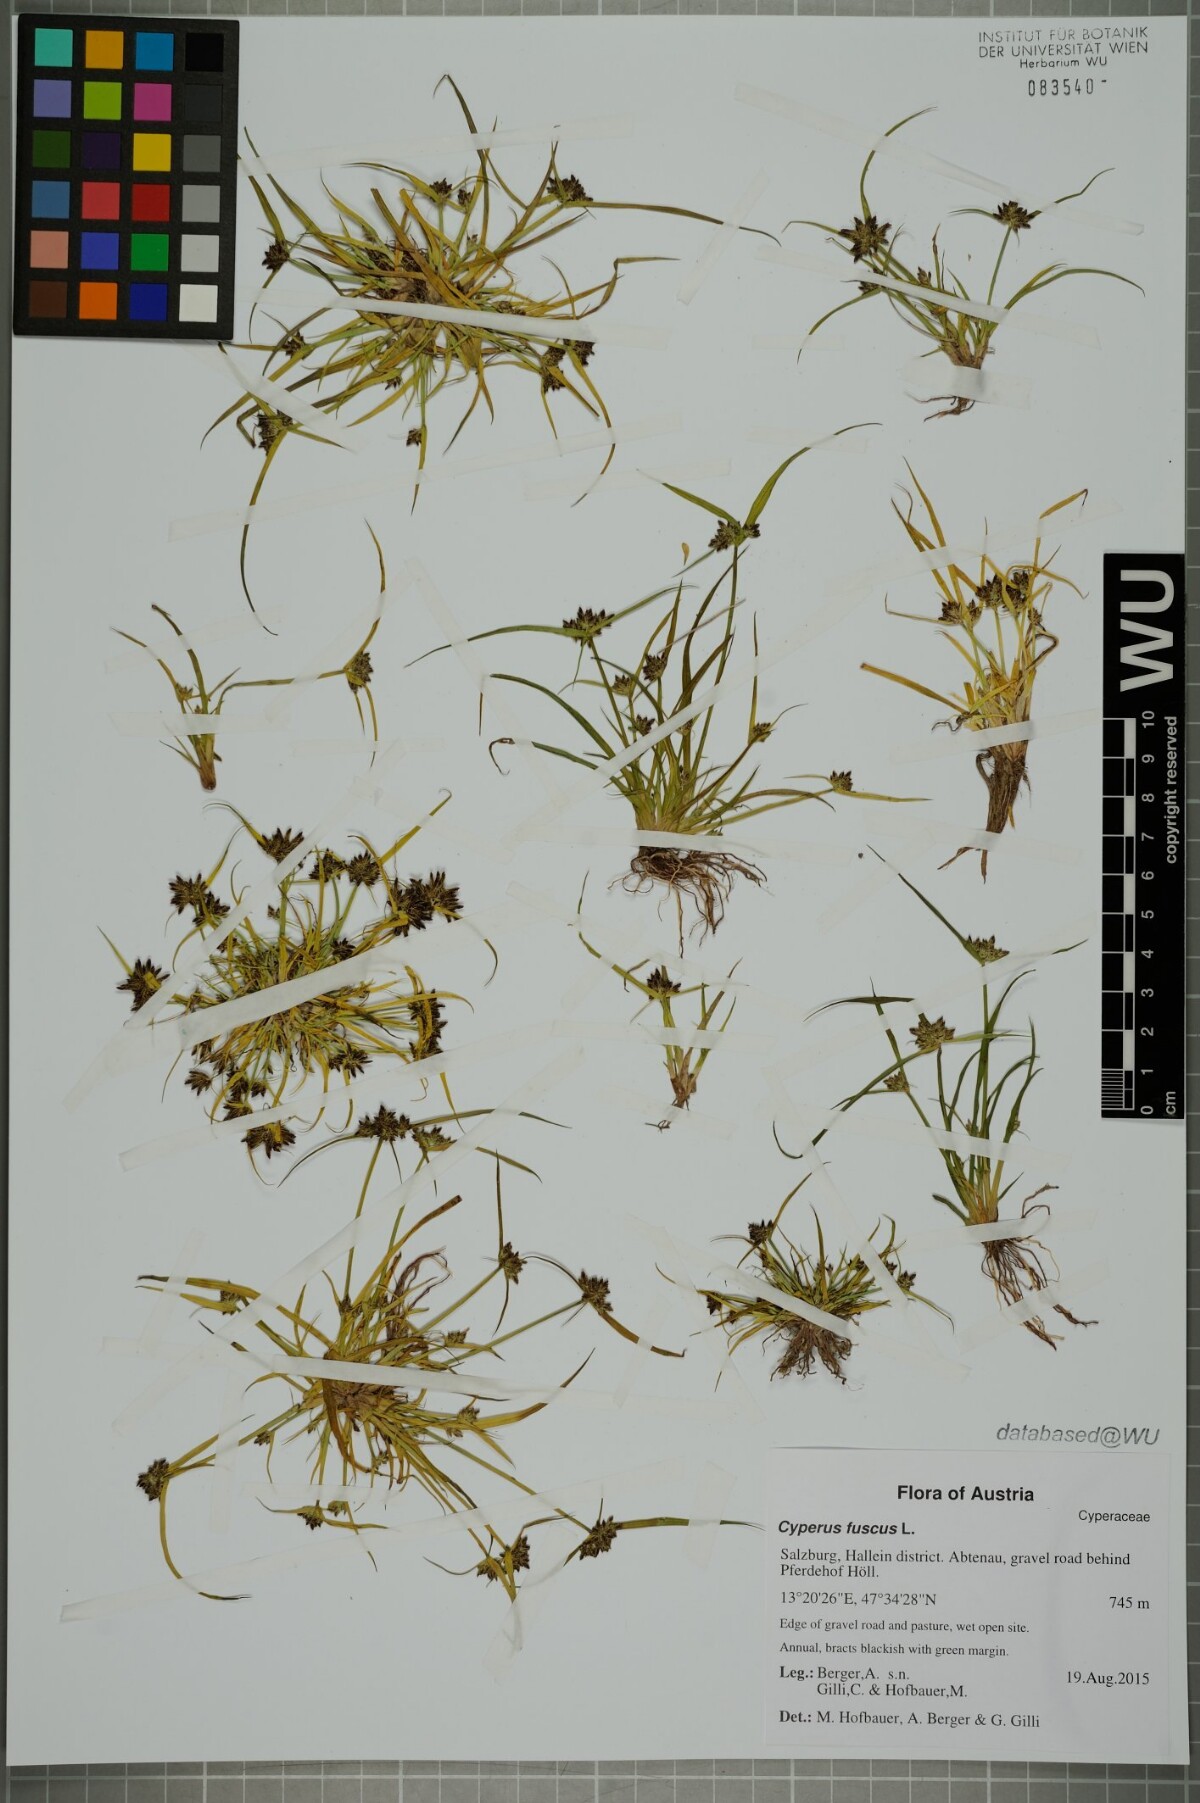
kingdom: Plantae
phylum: Tracheophyta
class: Liliopsida
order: Poales
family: Cyperaceae
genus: Cyperus
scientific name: Cyperus fuscus
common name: Brown galingale
